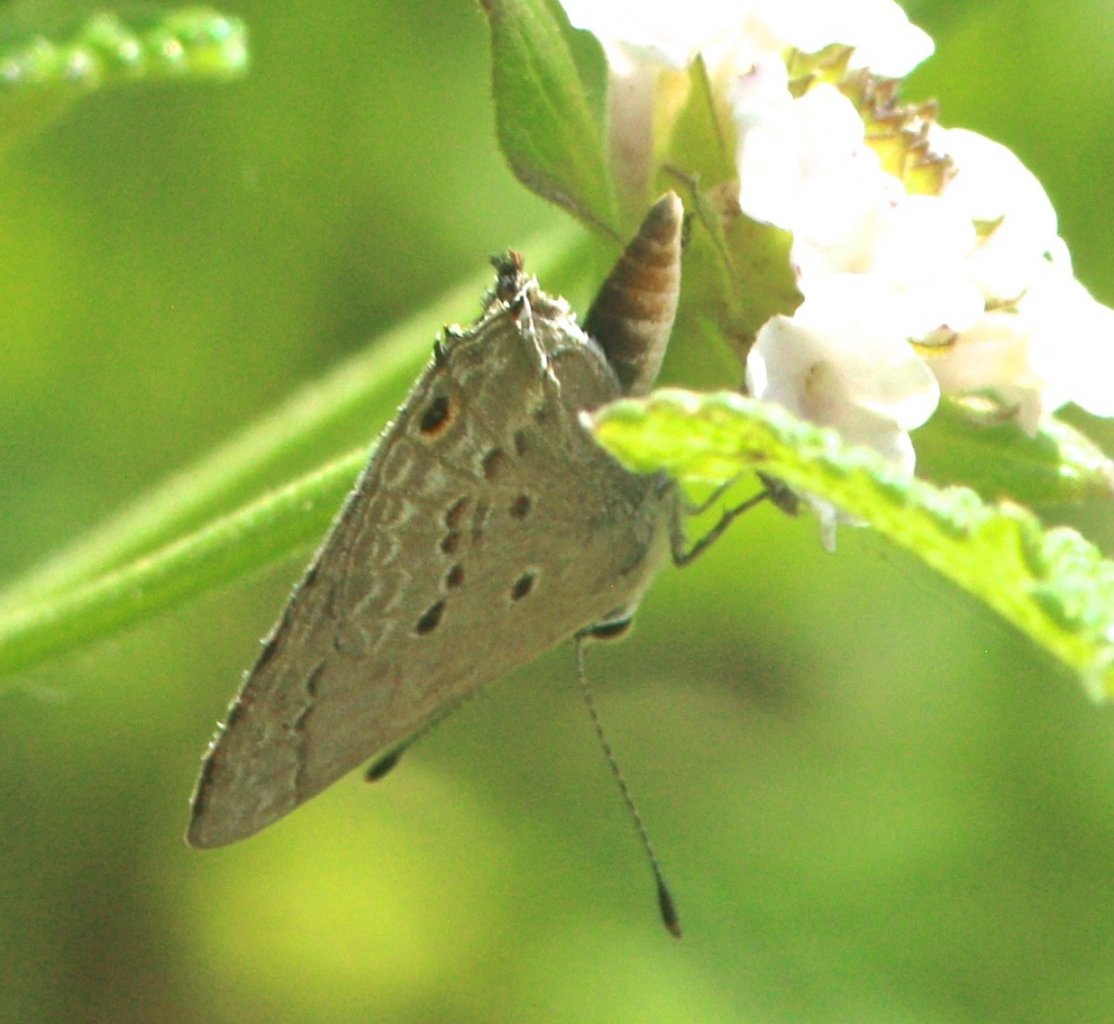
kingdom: Animalia
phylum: Arthropoda
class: Insecta
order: Lepidoptera
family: Lycaenidae
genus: Callicista
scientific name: Callicista columella
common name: Mallow Scrub-Hairstreak
